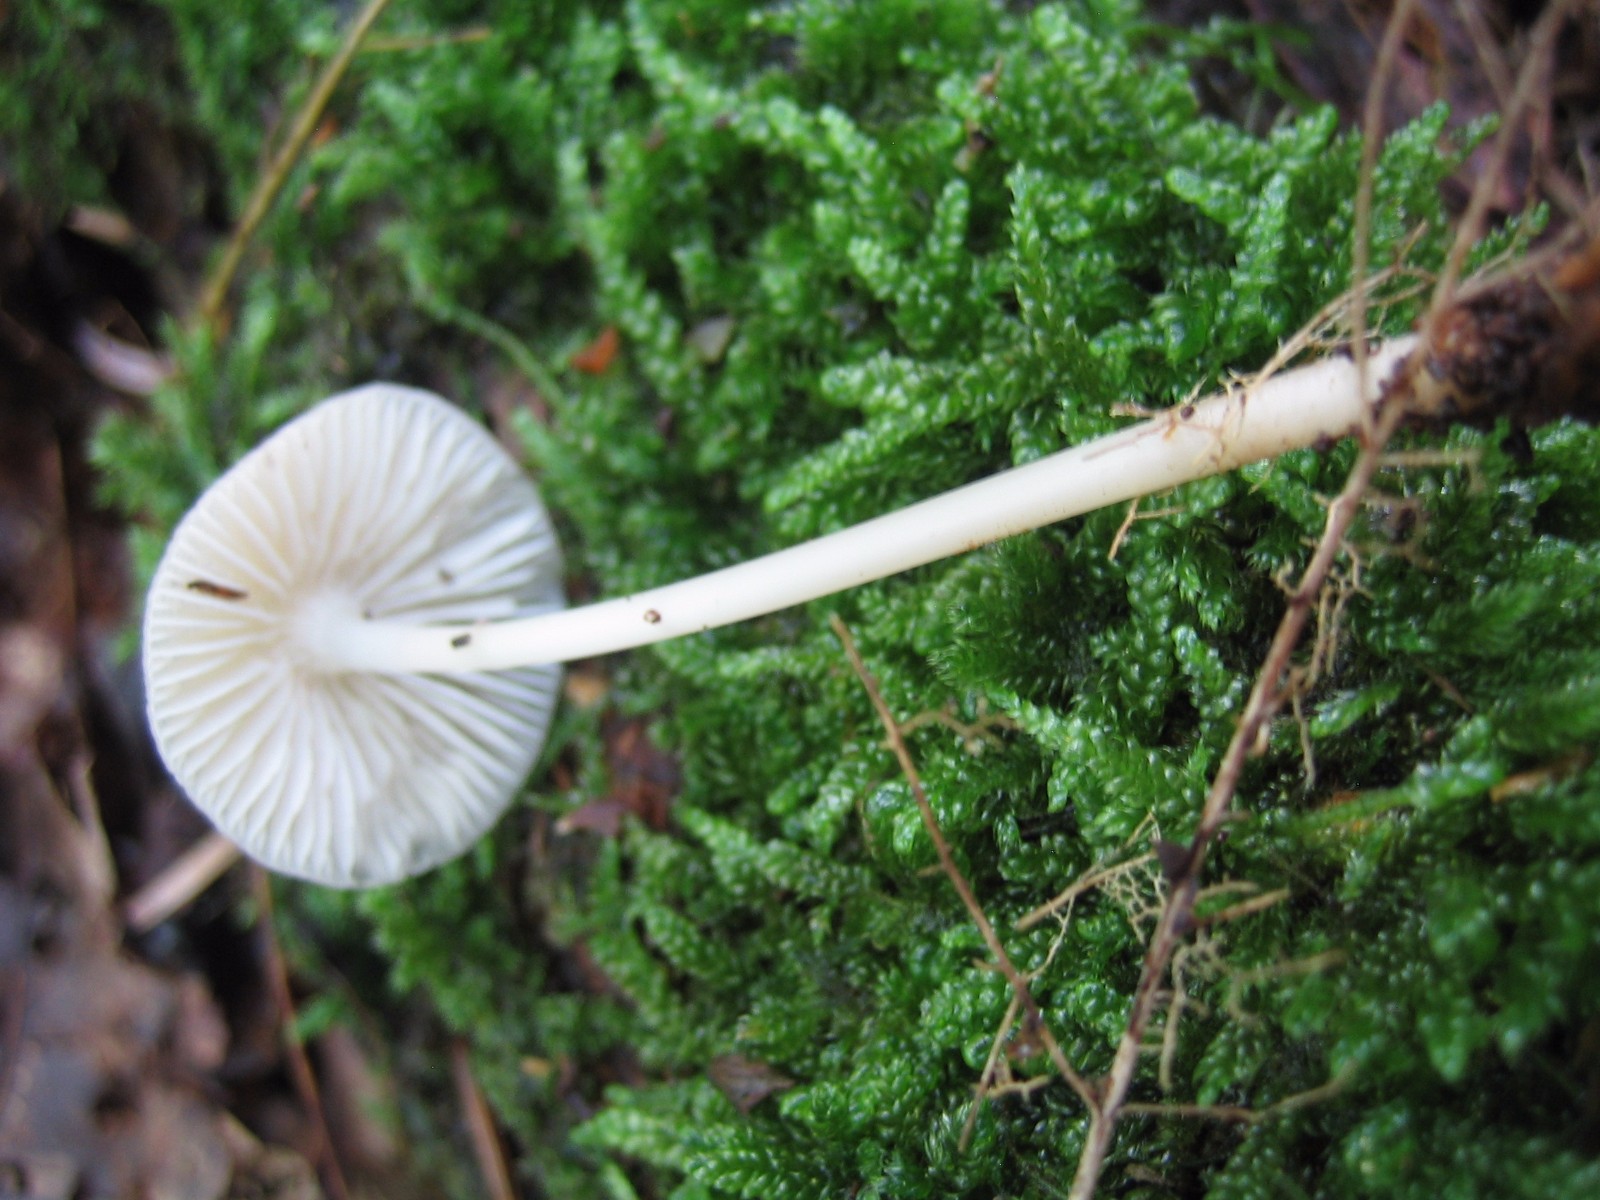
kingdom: Fungi
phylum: Basidiomycota
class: Agaricomycetes
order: Agaricales
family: Mycenaceae
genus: Mycena
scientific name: Mycena vitilis
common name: blankstokket huesvamp
